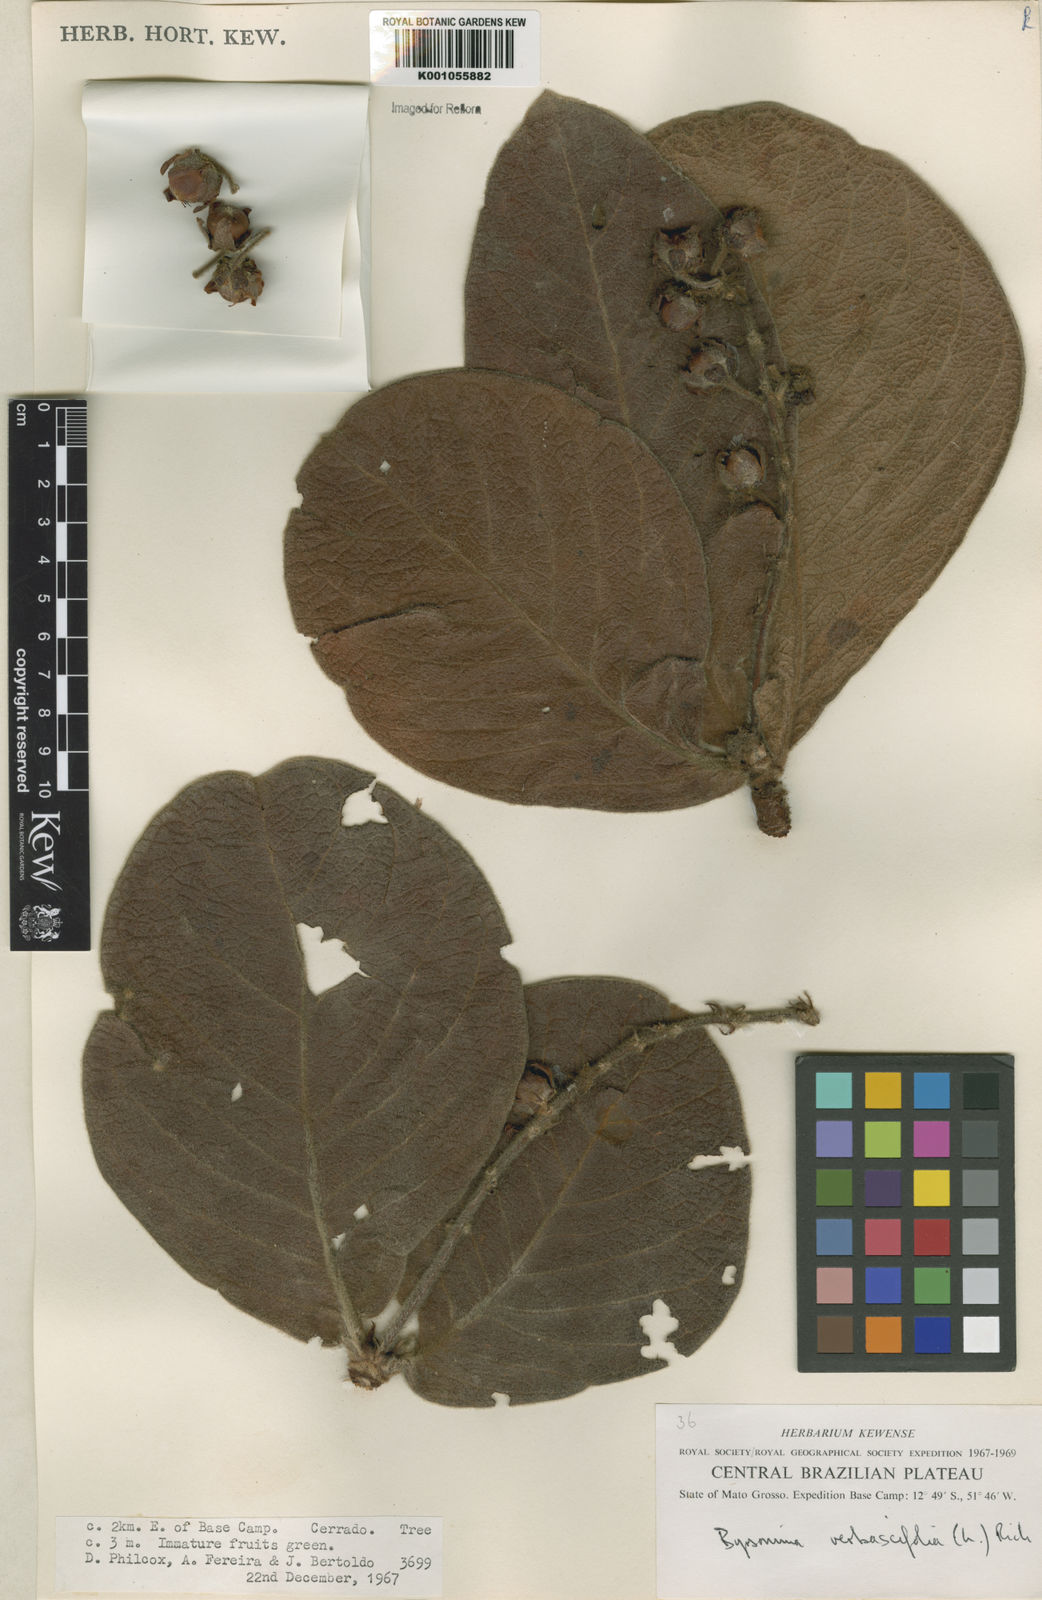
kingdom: Plantae
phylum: Tracheophyta
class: Magnoliopsida
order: Malpighiales
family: Malpighiaceae
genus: Byrsonima
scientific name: Byrsonima verbascifolia
